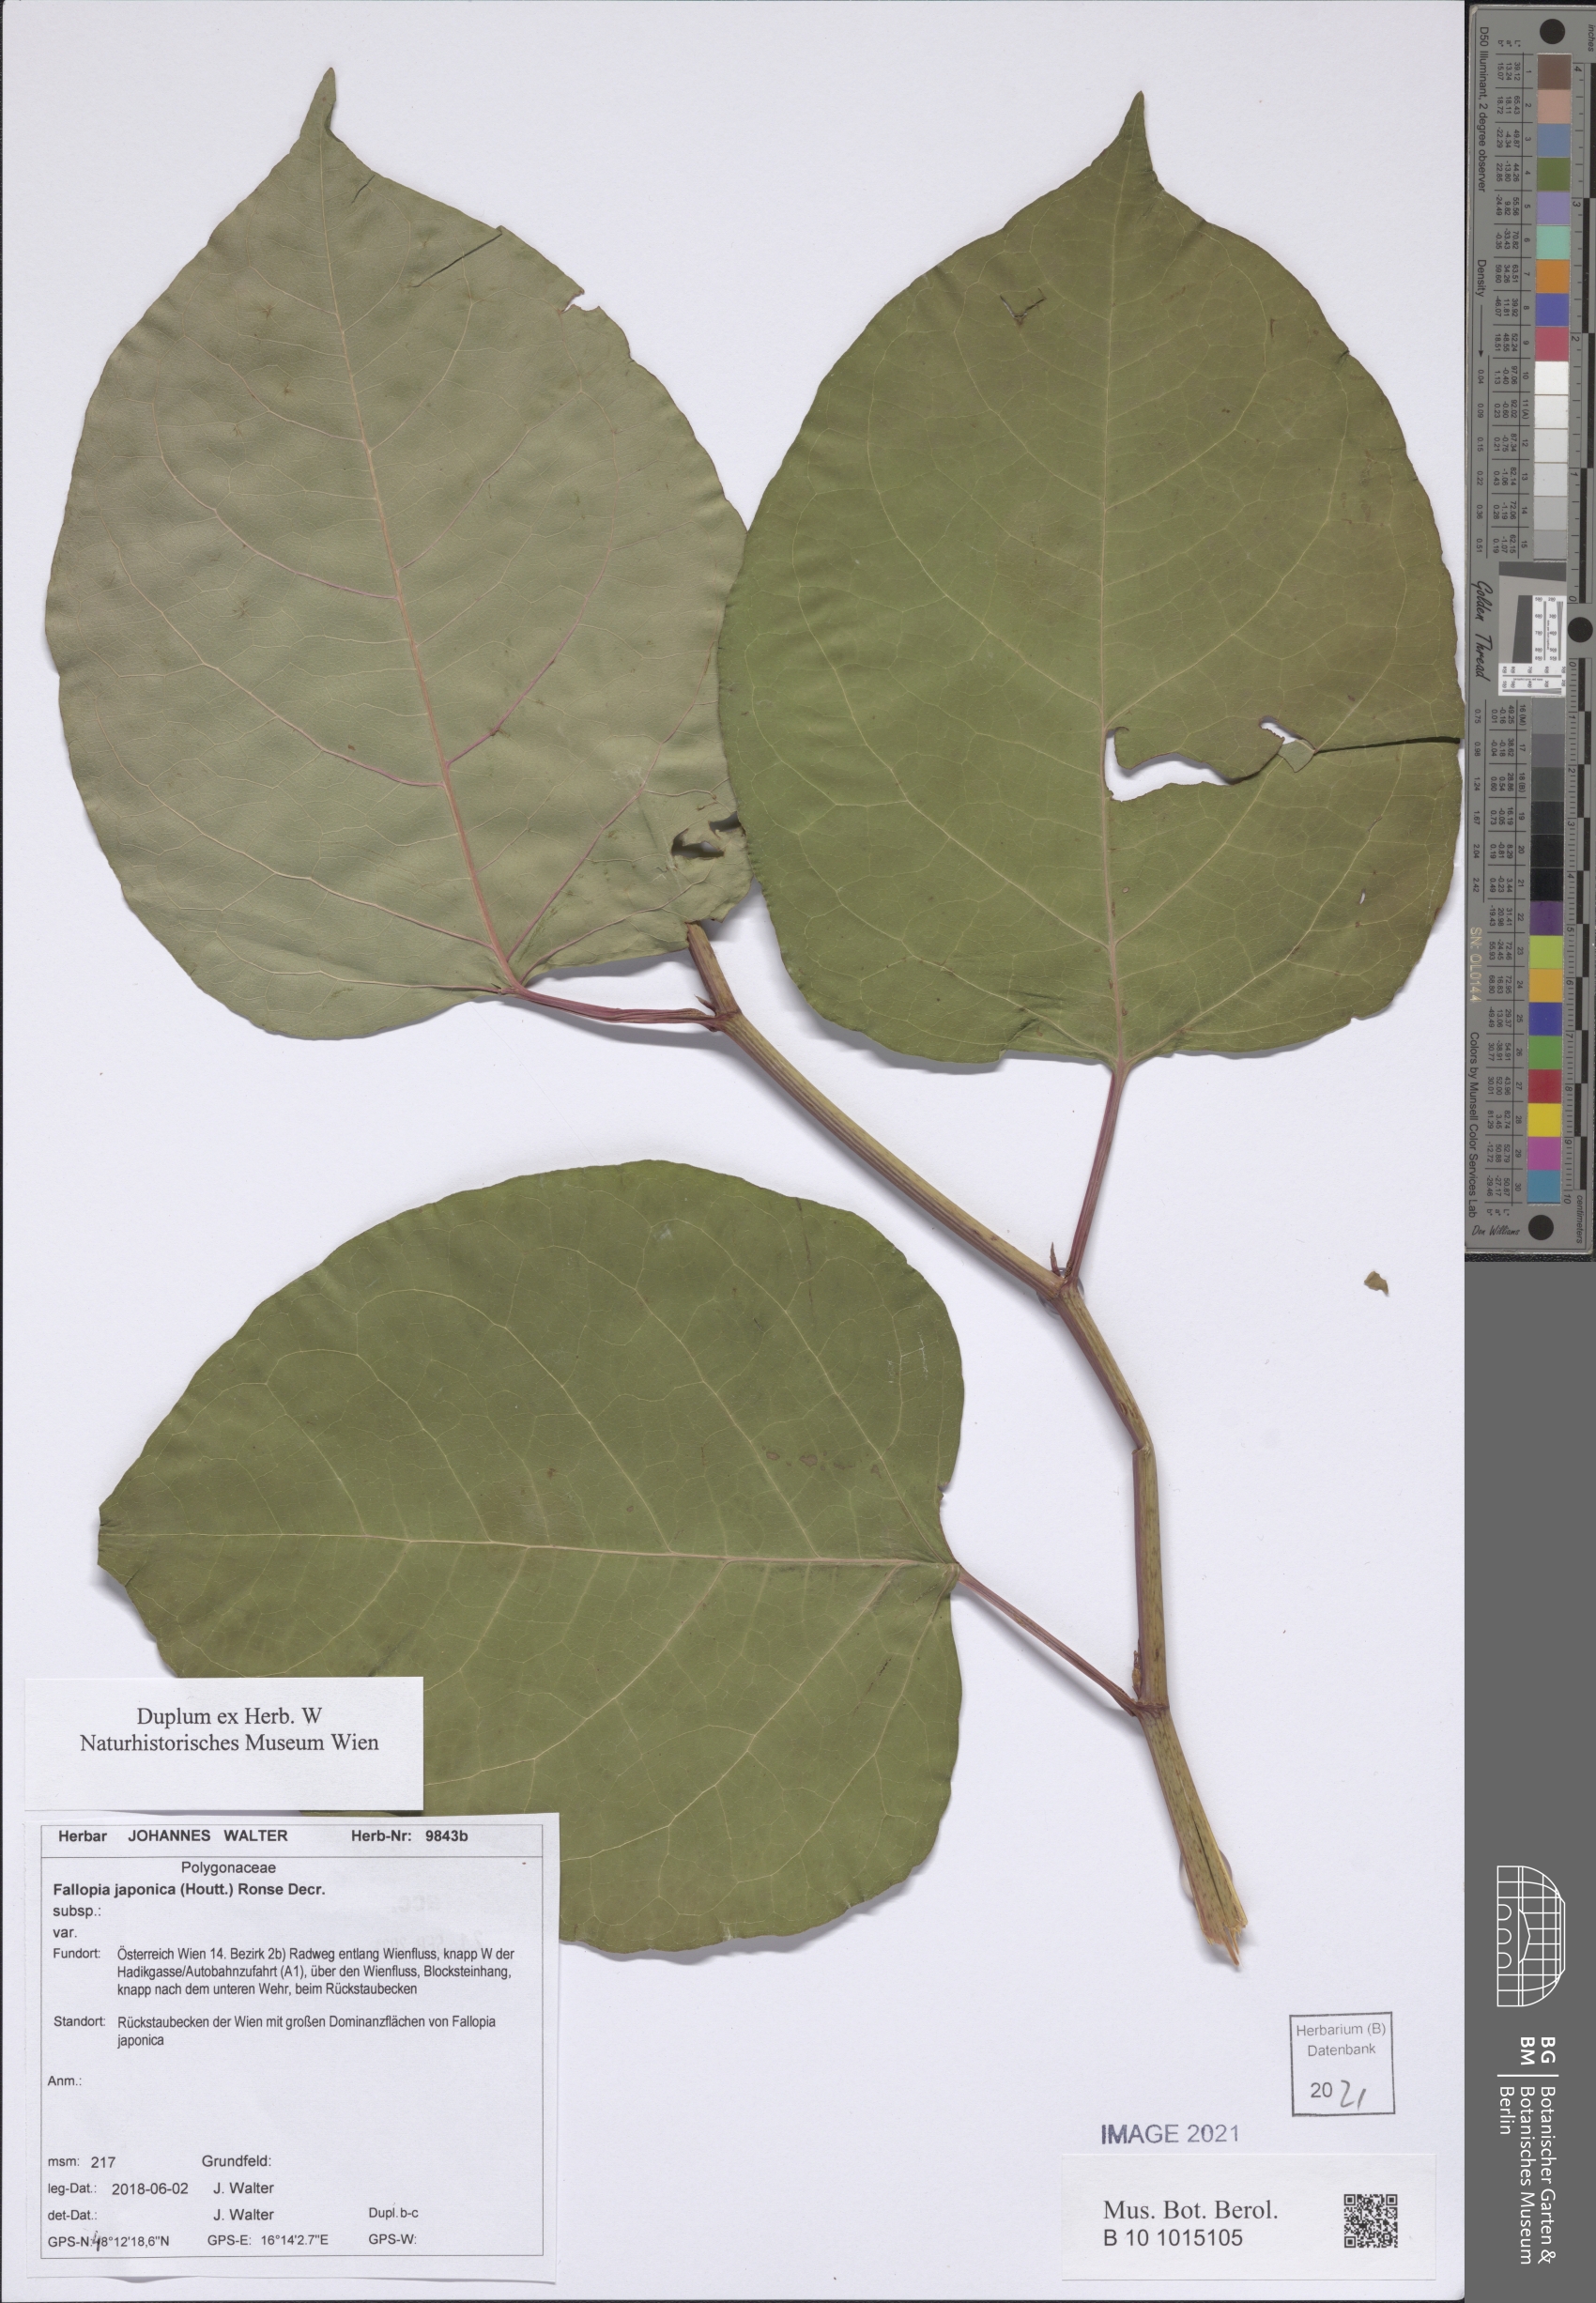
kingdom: Plantae
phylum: Tracheophyta
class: Magnoliopsida
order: Caryophyllales
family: Polygonaceae
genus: Reynoutria
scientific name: Reynoutria bohemica
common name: Bohemian knotweed
